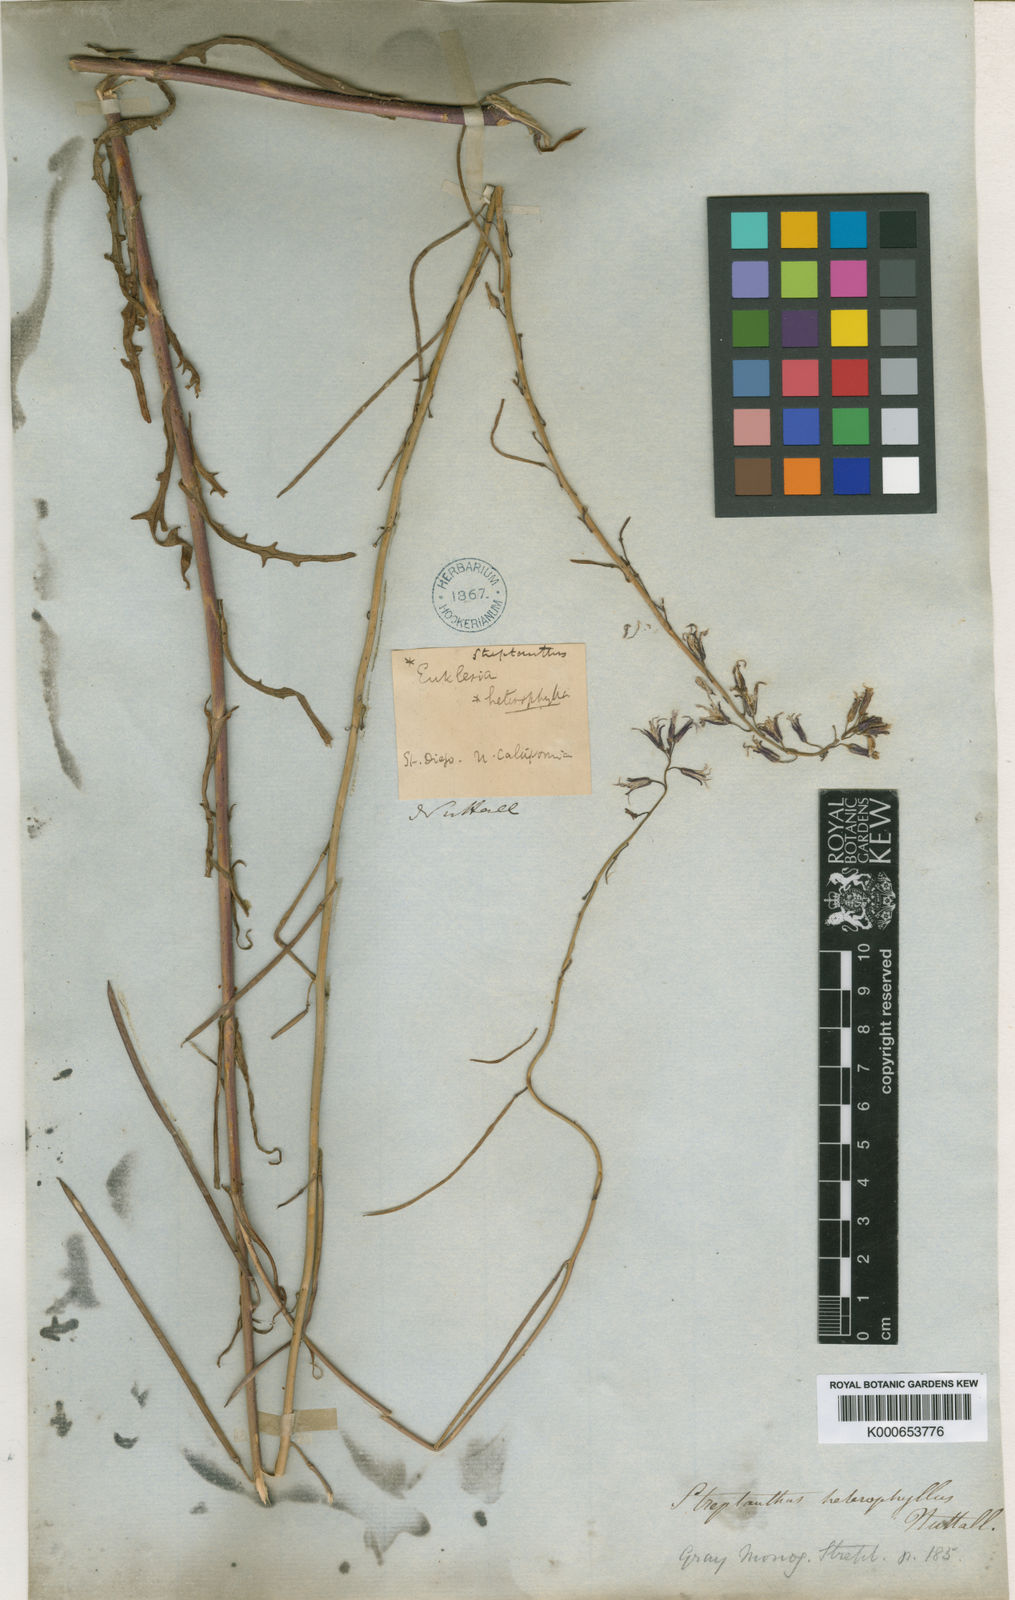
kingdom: Plantae
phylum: Tracheophyta
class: Magnoliopsida
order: Brassicales
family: Brassicaceae
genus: Streptanthus
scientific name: Streptanthus heterophyllus
